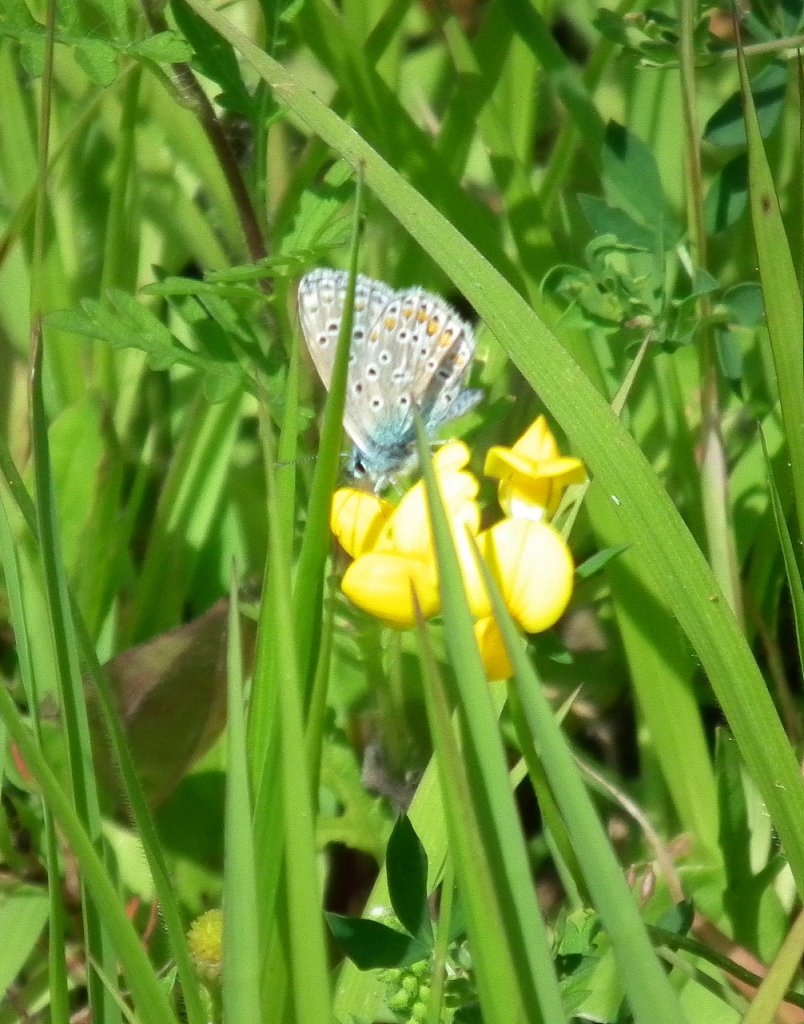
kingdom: Animalia
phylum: Arthropoda
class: Insecta
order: Lepidoptera
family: Lycaenidae
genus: Polyommatus
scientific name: Polyommatus icarus
